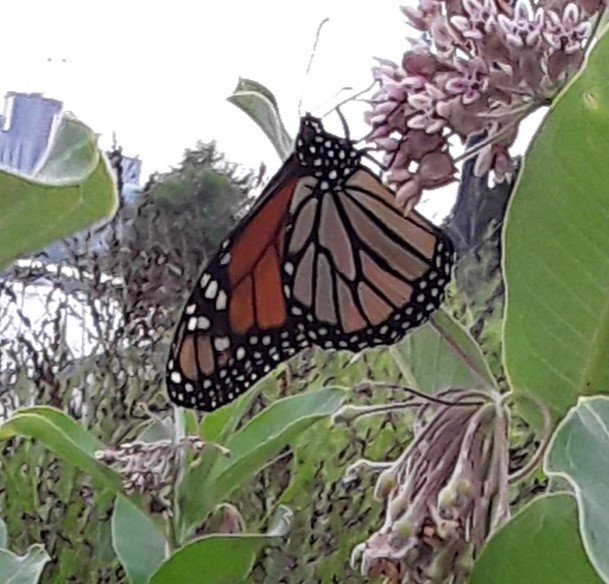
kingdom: Animalia
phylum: Arthropoda
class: Insecta
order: Lepidoptera
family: Nymphalidae
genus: Danaus
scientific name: Danaus plexippus
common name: Monarch
